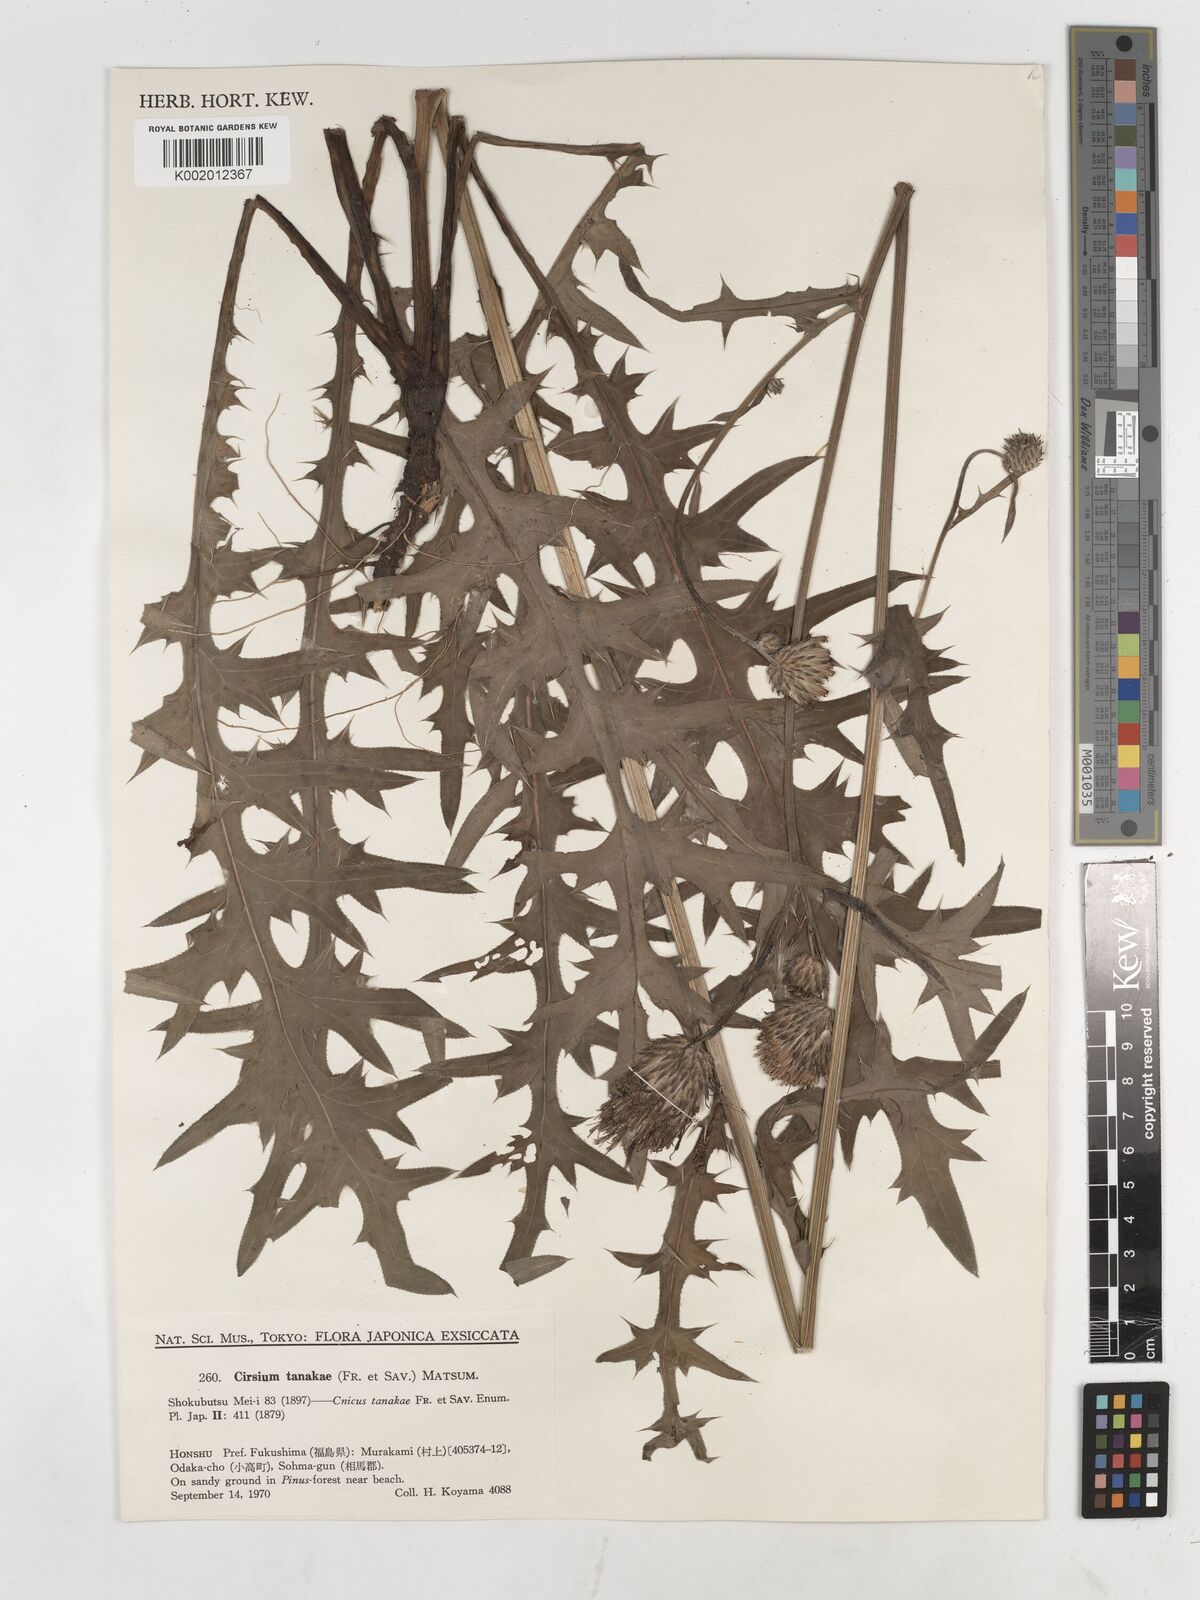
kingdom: Plantae
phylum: Tracheophyta
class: Magnoliopsida
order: Asterales
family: Asteraceae
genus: Cirsium
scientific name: Cirsium nipponicum
